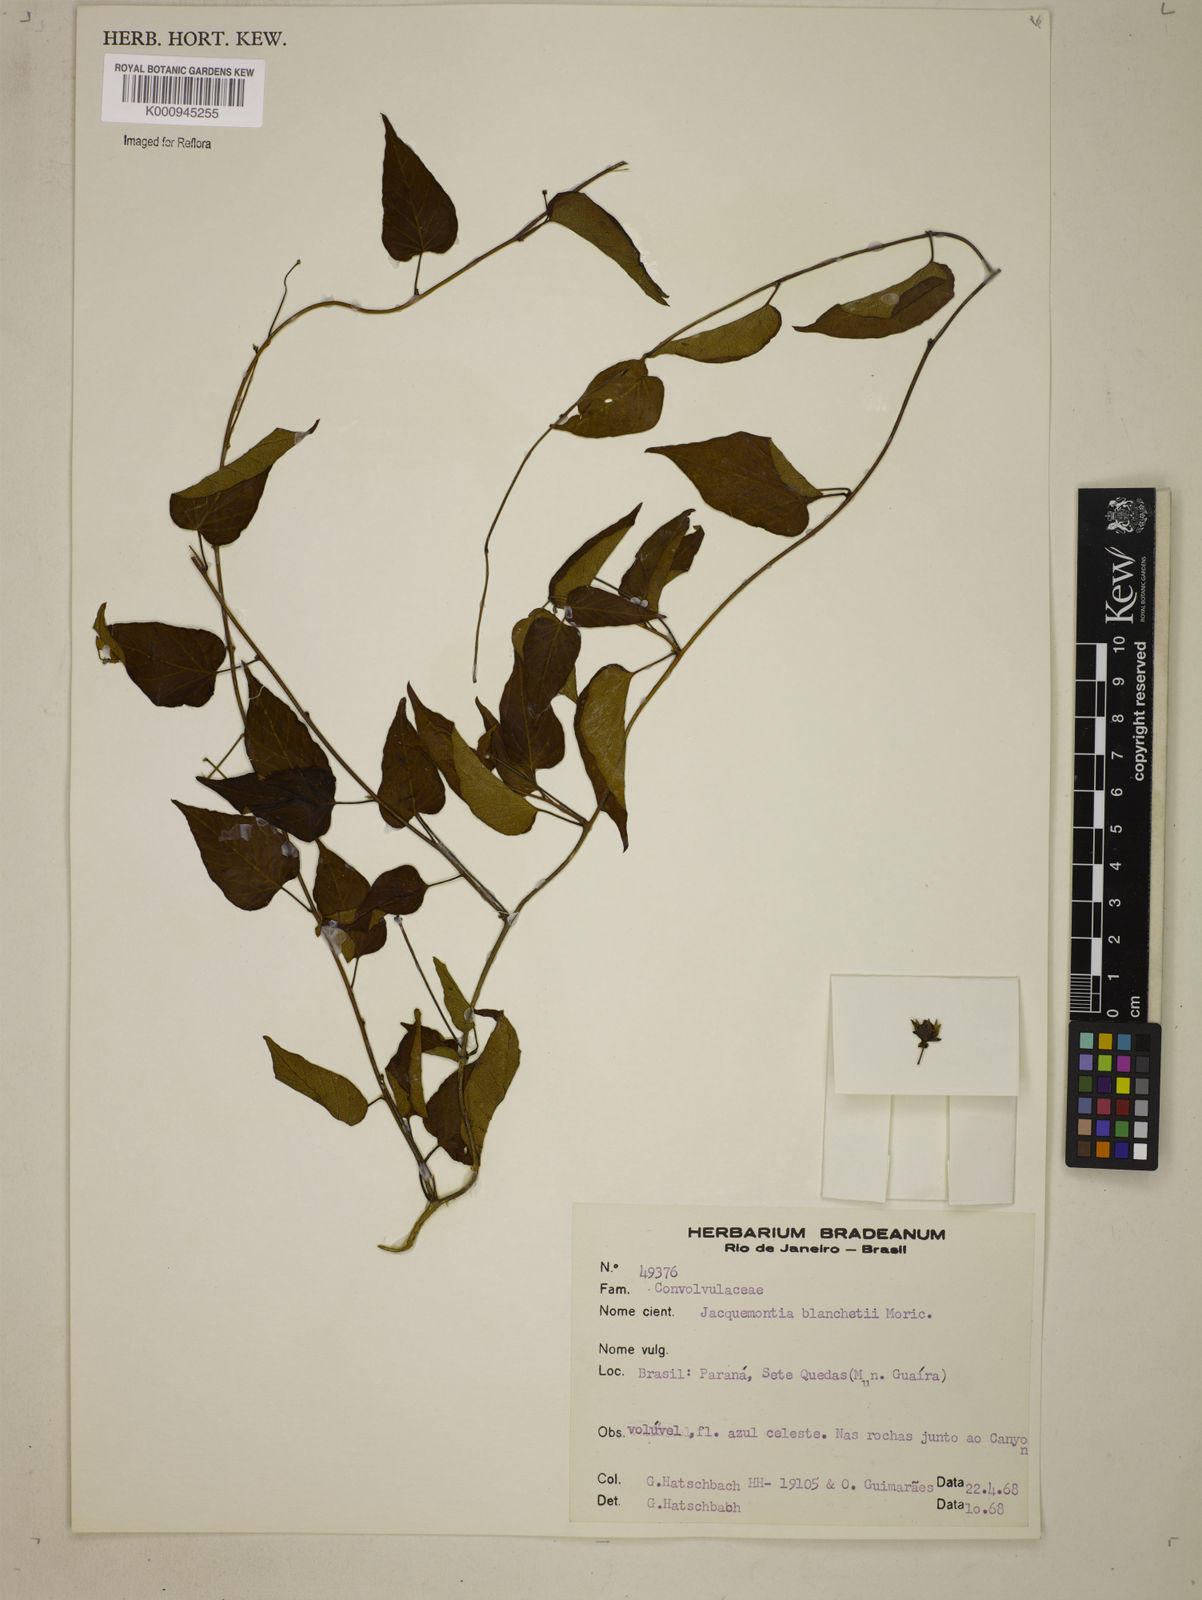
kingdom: Plantae
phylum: Tracheophyta
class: Magnoliopsida
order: Solanales
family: Convolvulaceae
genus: Jacquemontia
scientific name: Jacquemontia blanchetii
